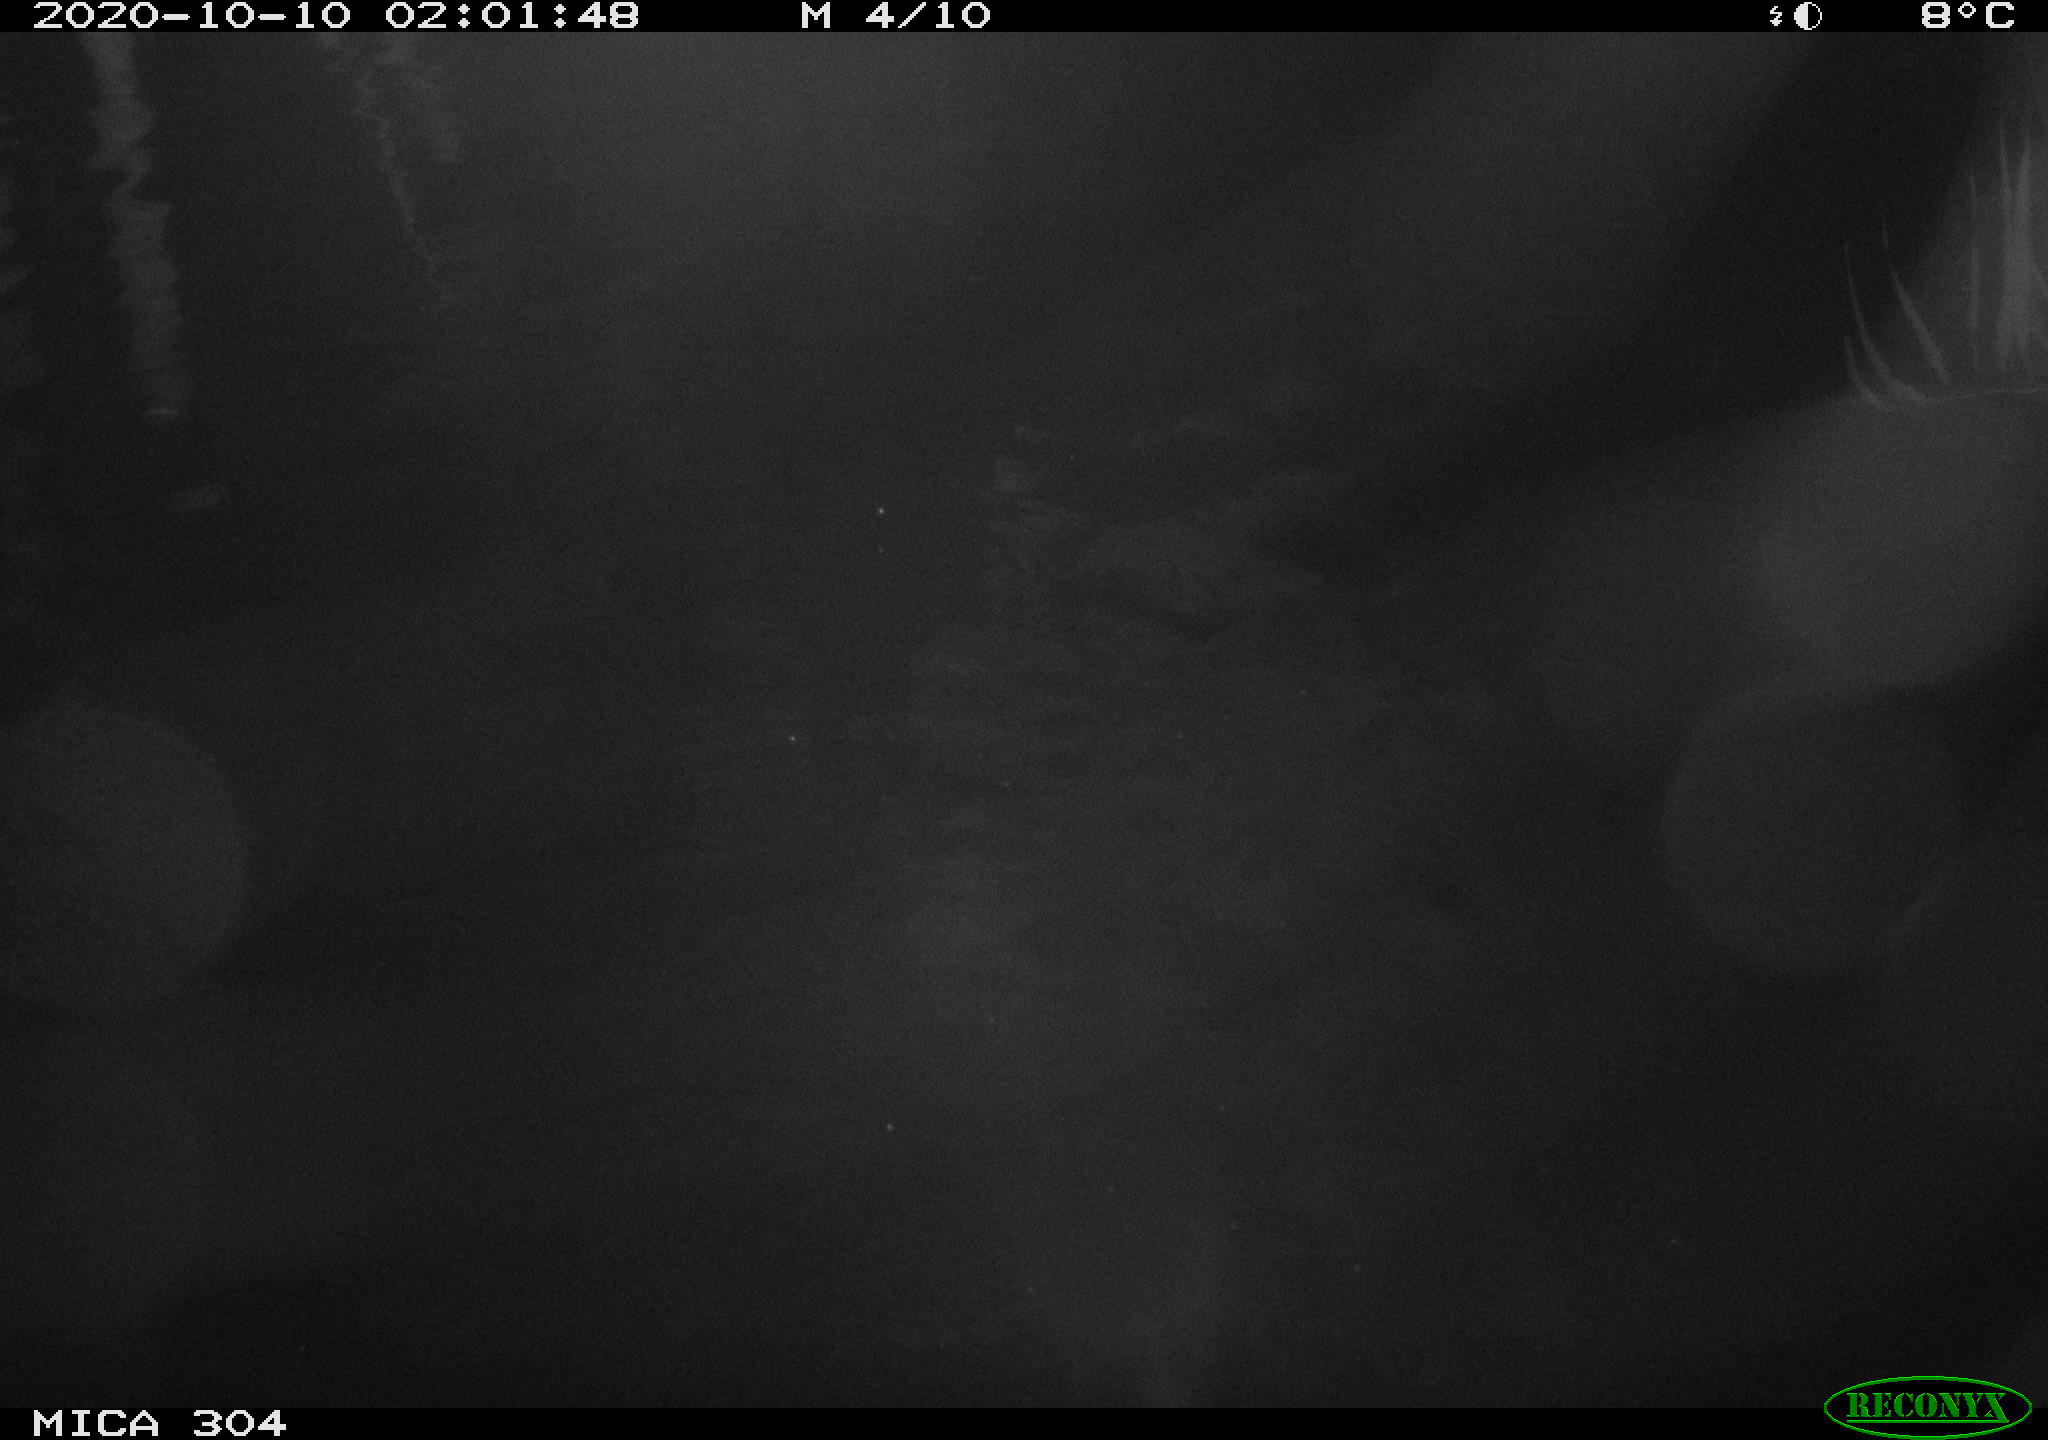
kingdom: Animalia
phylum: Chordata
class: Mammalia
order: Rodentia
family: Cricetidae
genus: Ondatra
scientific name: Ondatra zibethicus
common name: Muskrat
